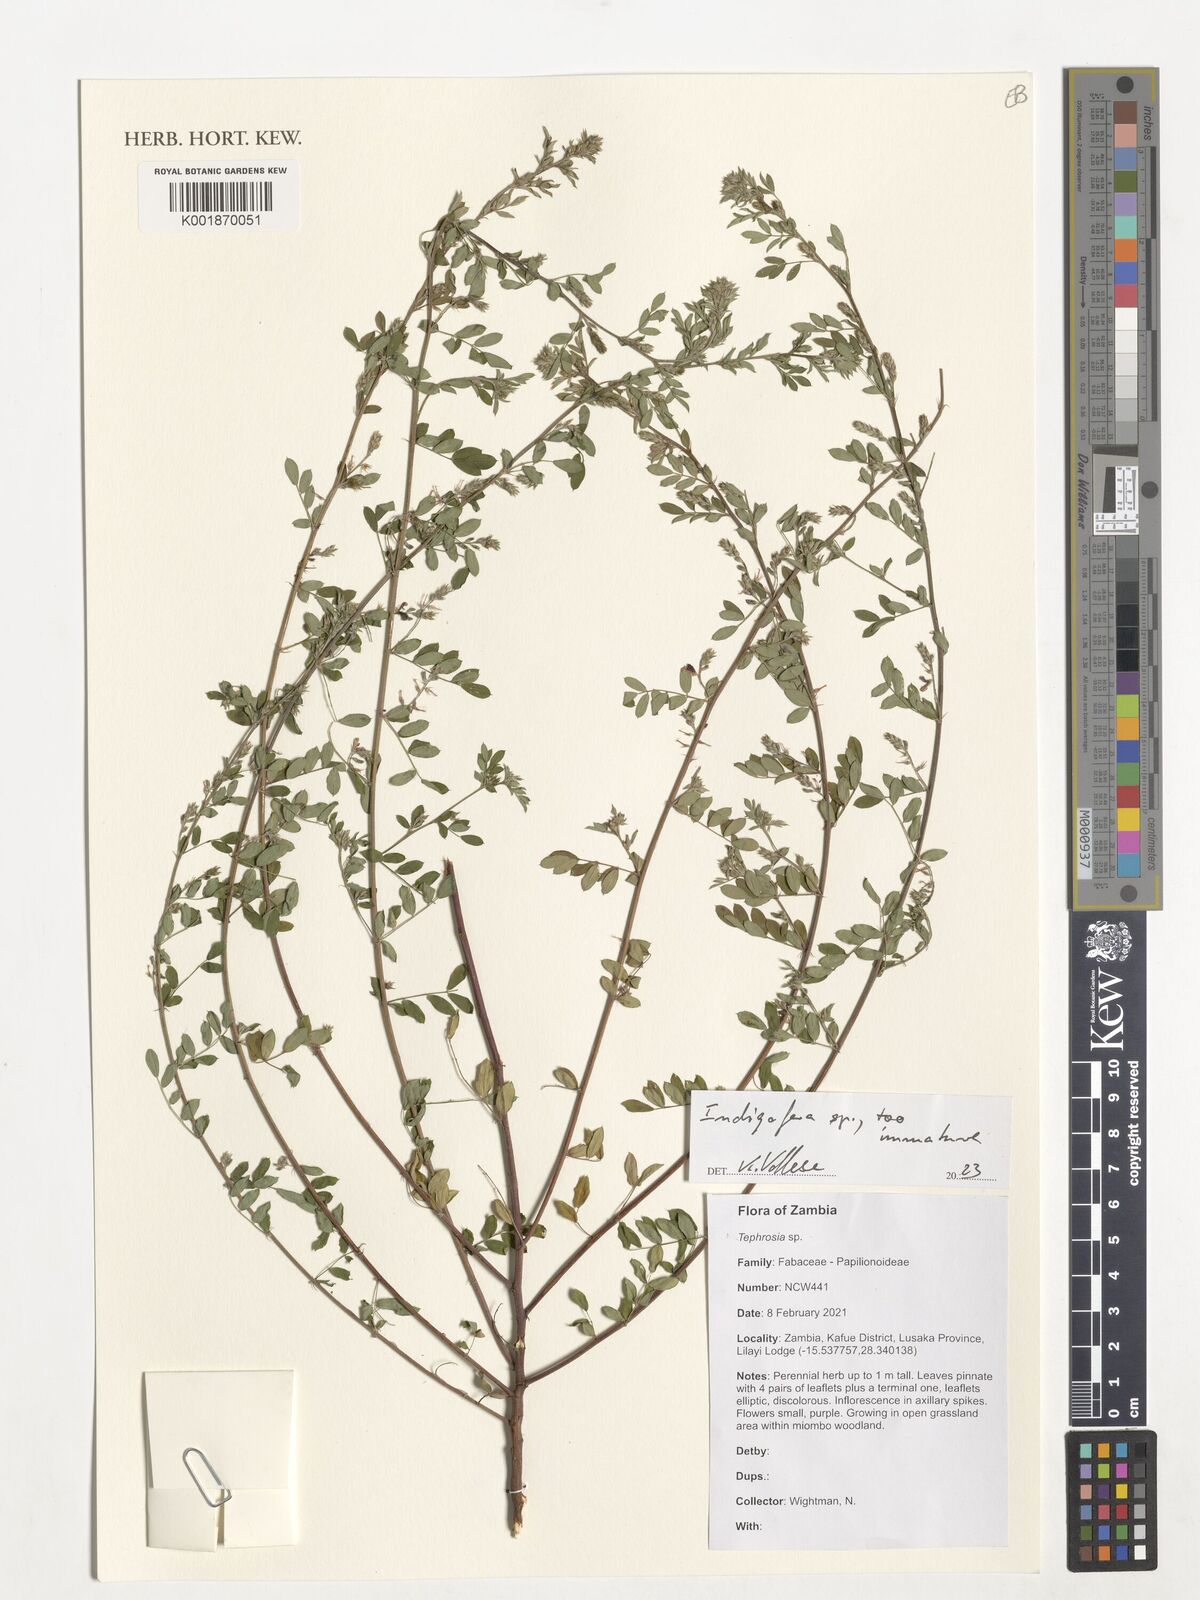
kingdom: Plantae
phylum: Tracheophyta
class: Magnoliopsida
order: Fabales
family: Fabaceae
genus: Indigofera
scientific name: Indigofera
